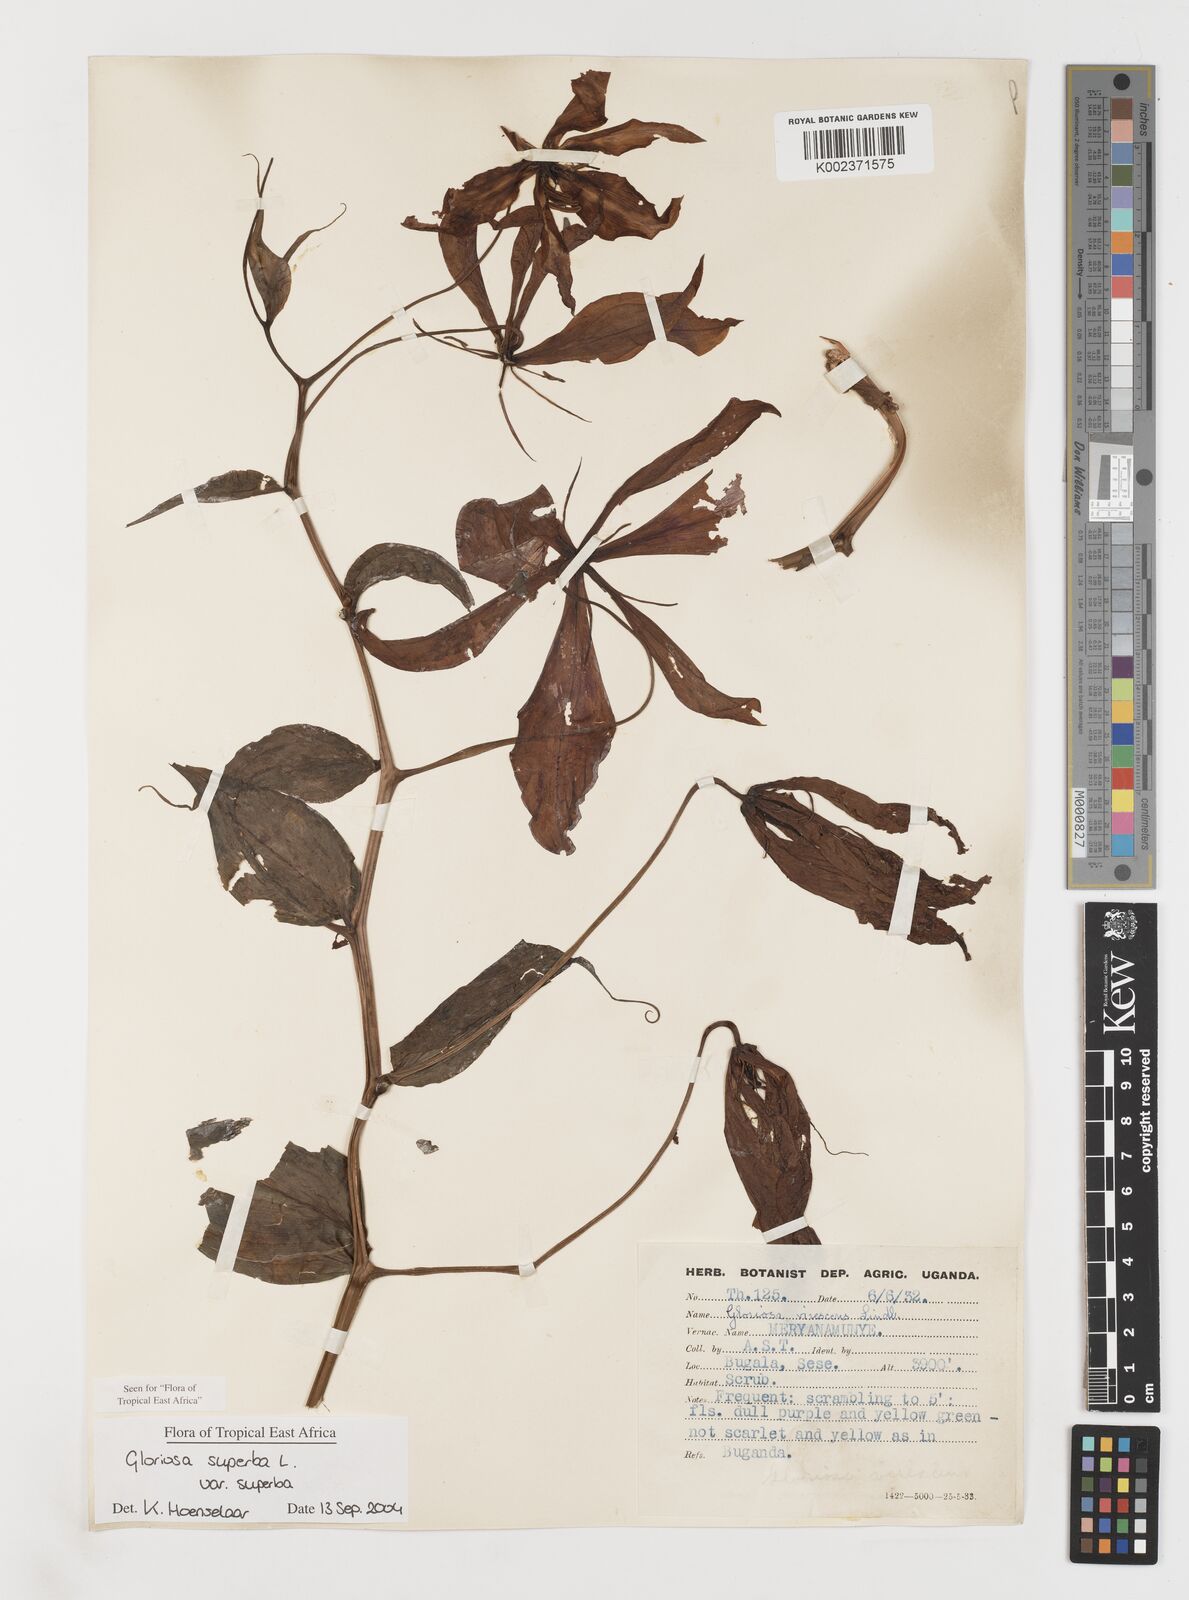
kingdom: Plantae
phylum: Tracheophyta
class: Liliopsida
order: Liliales
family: Colchicaceae
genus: Gloriosa
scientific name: Gloriosa simplex
